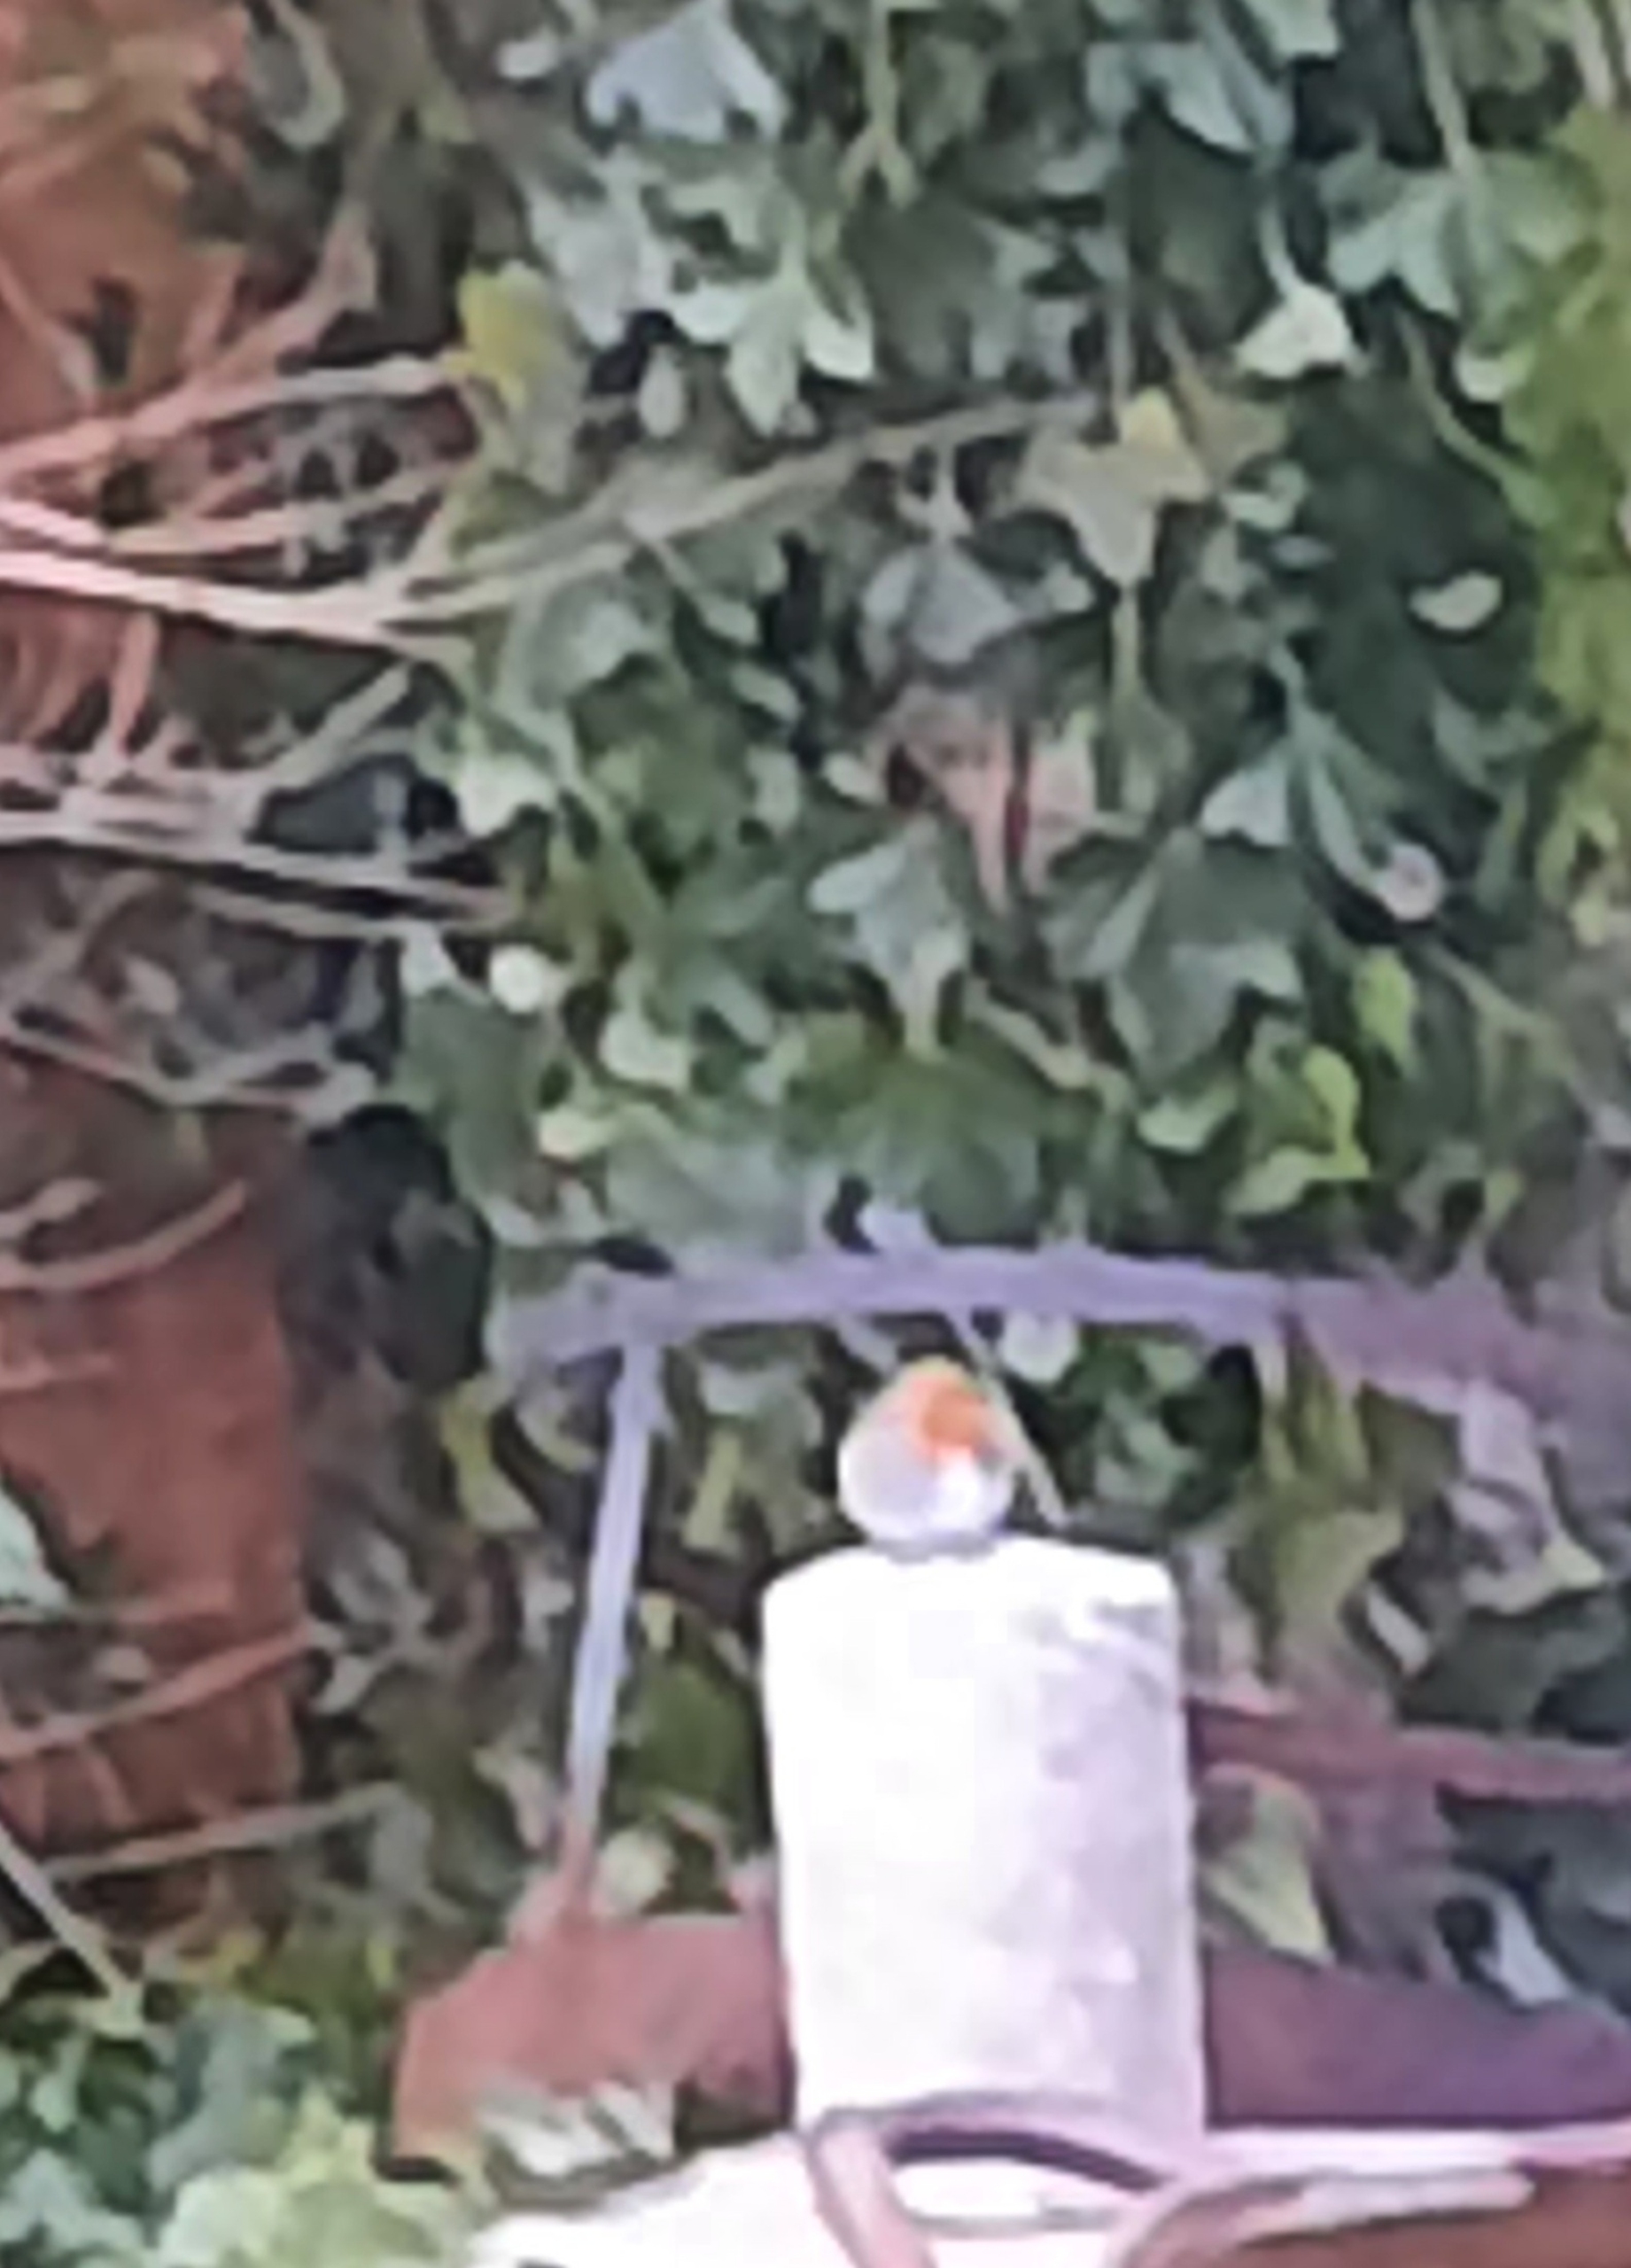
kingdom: Animalia
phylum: Chordata
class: Aves
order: Passeriformes
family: Muscicapidae
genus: Erithacus
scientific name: Erithacus rubecula
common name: Rødhals/rødkælk
